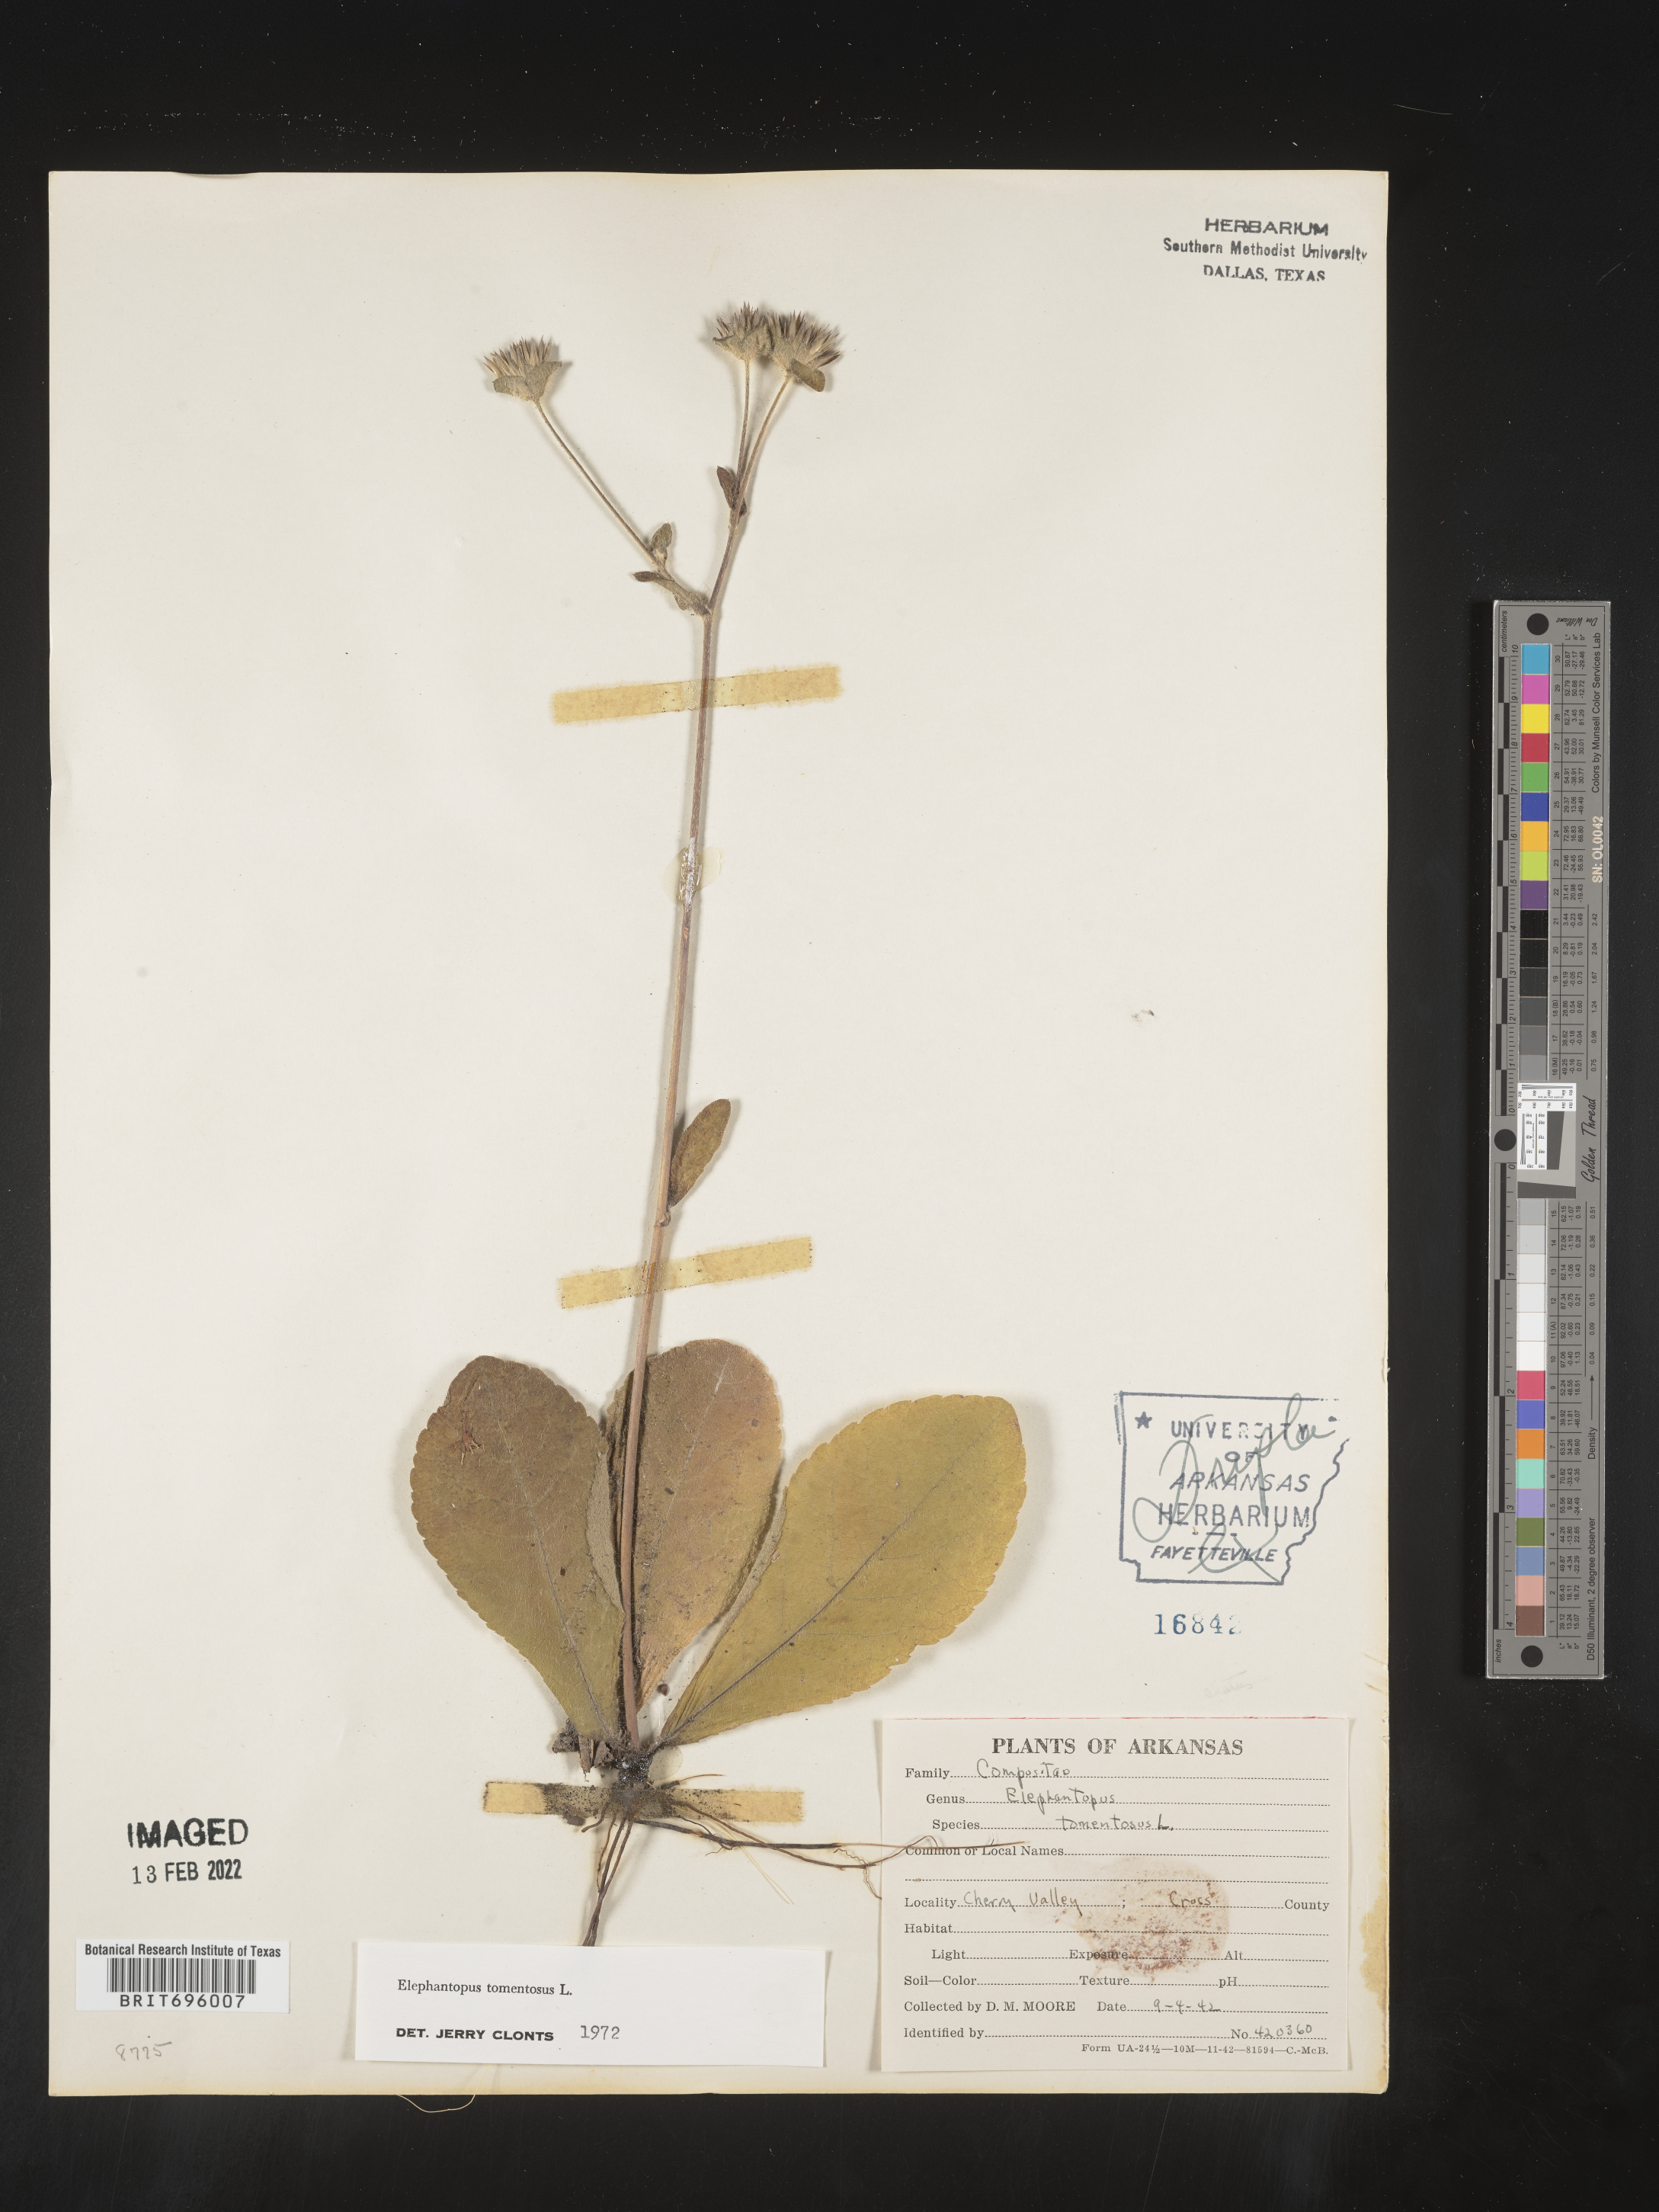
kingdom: Plantae
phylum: Tracheophyta
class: Magnoliopsida
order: Asterales
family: Asteraceae
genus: Elephantopus
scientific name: Elephantopus tomentosus
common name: Tobacco-weed
